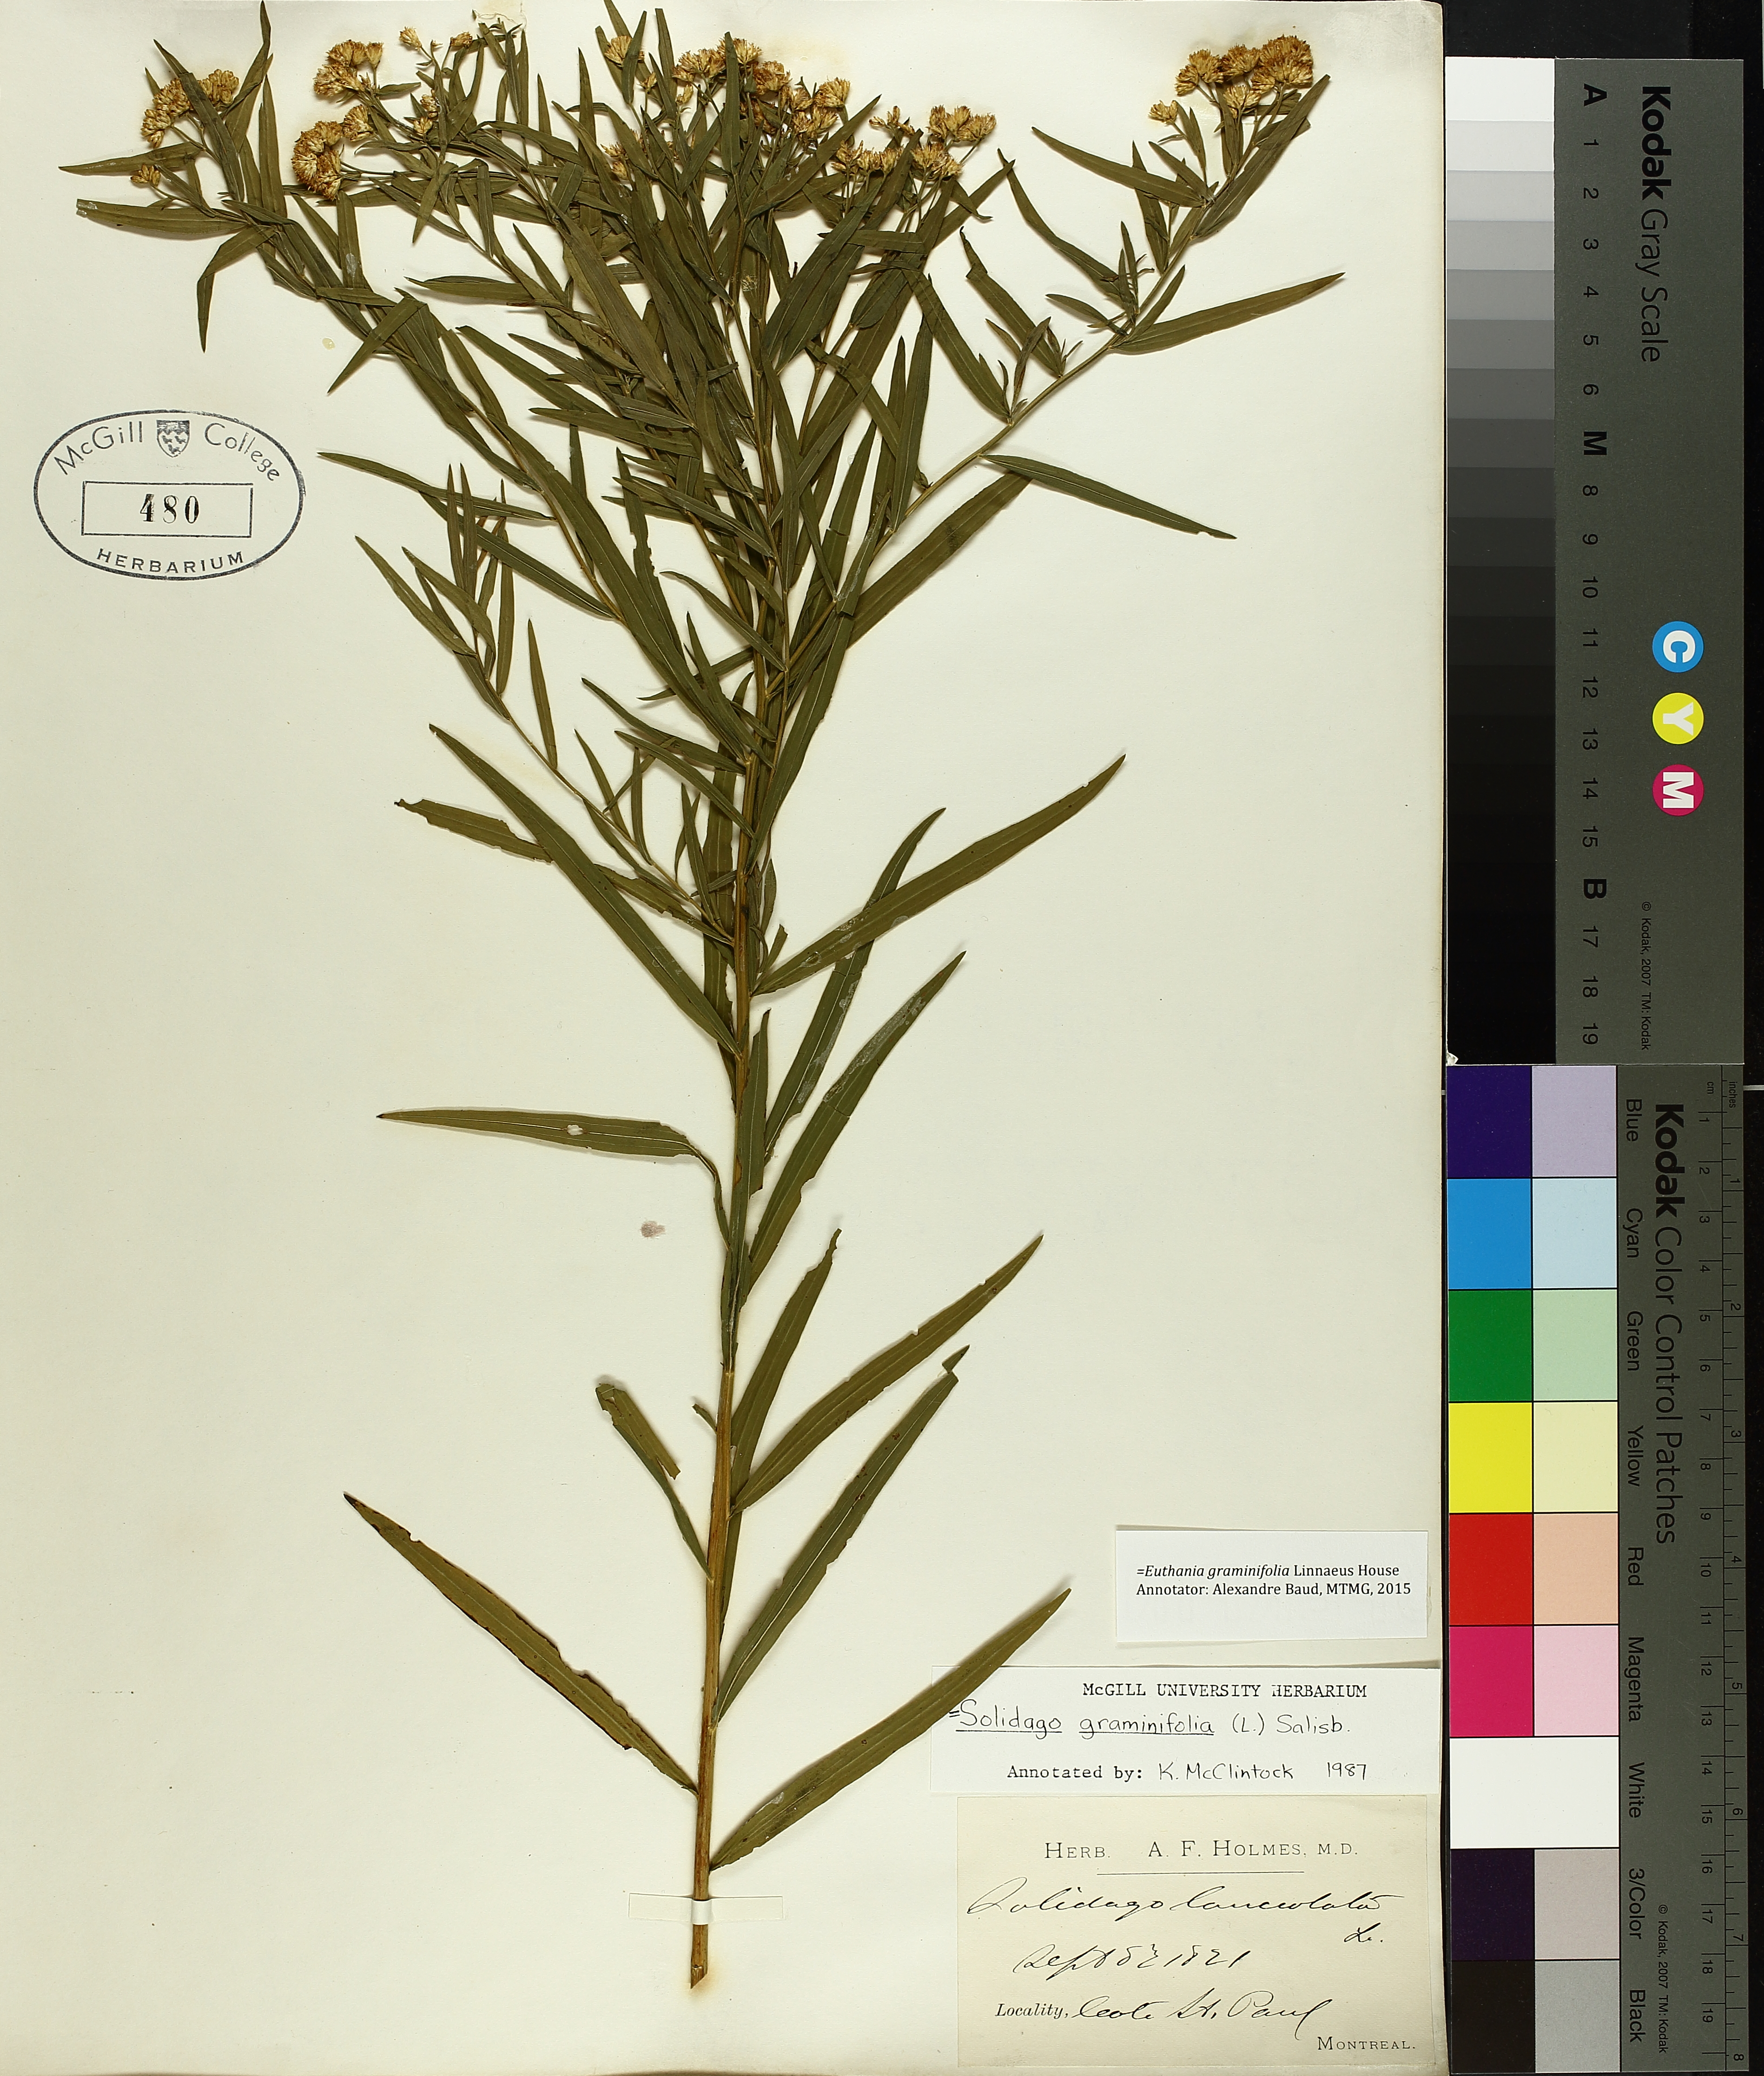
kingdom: Plantae
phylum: Tracheophyta
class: Magnoliopsida
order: Asterales
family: Asteraceae
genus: Euthamia
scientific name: Euthamia graminifolia
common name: Common goldentop
